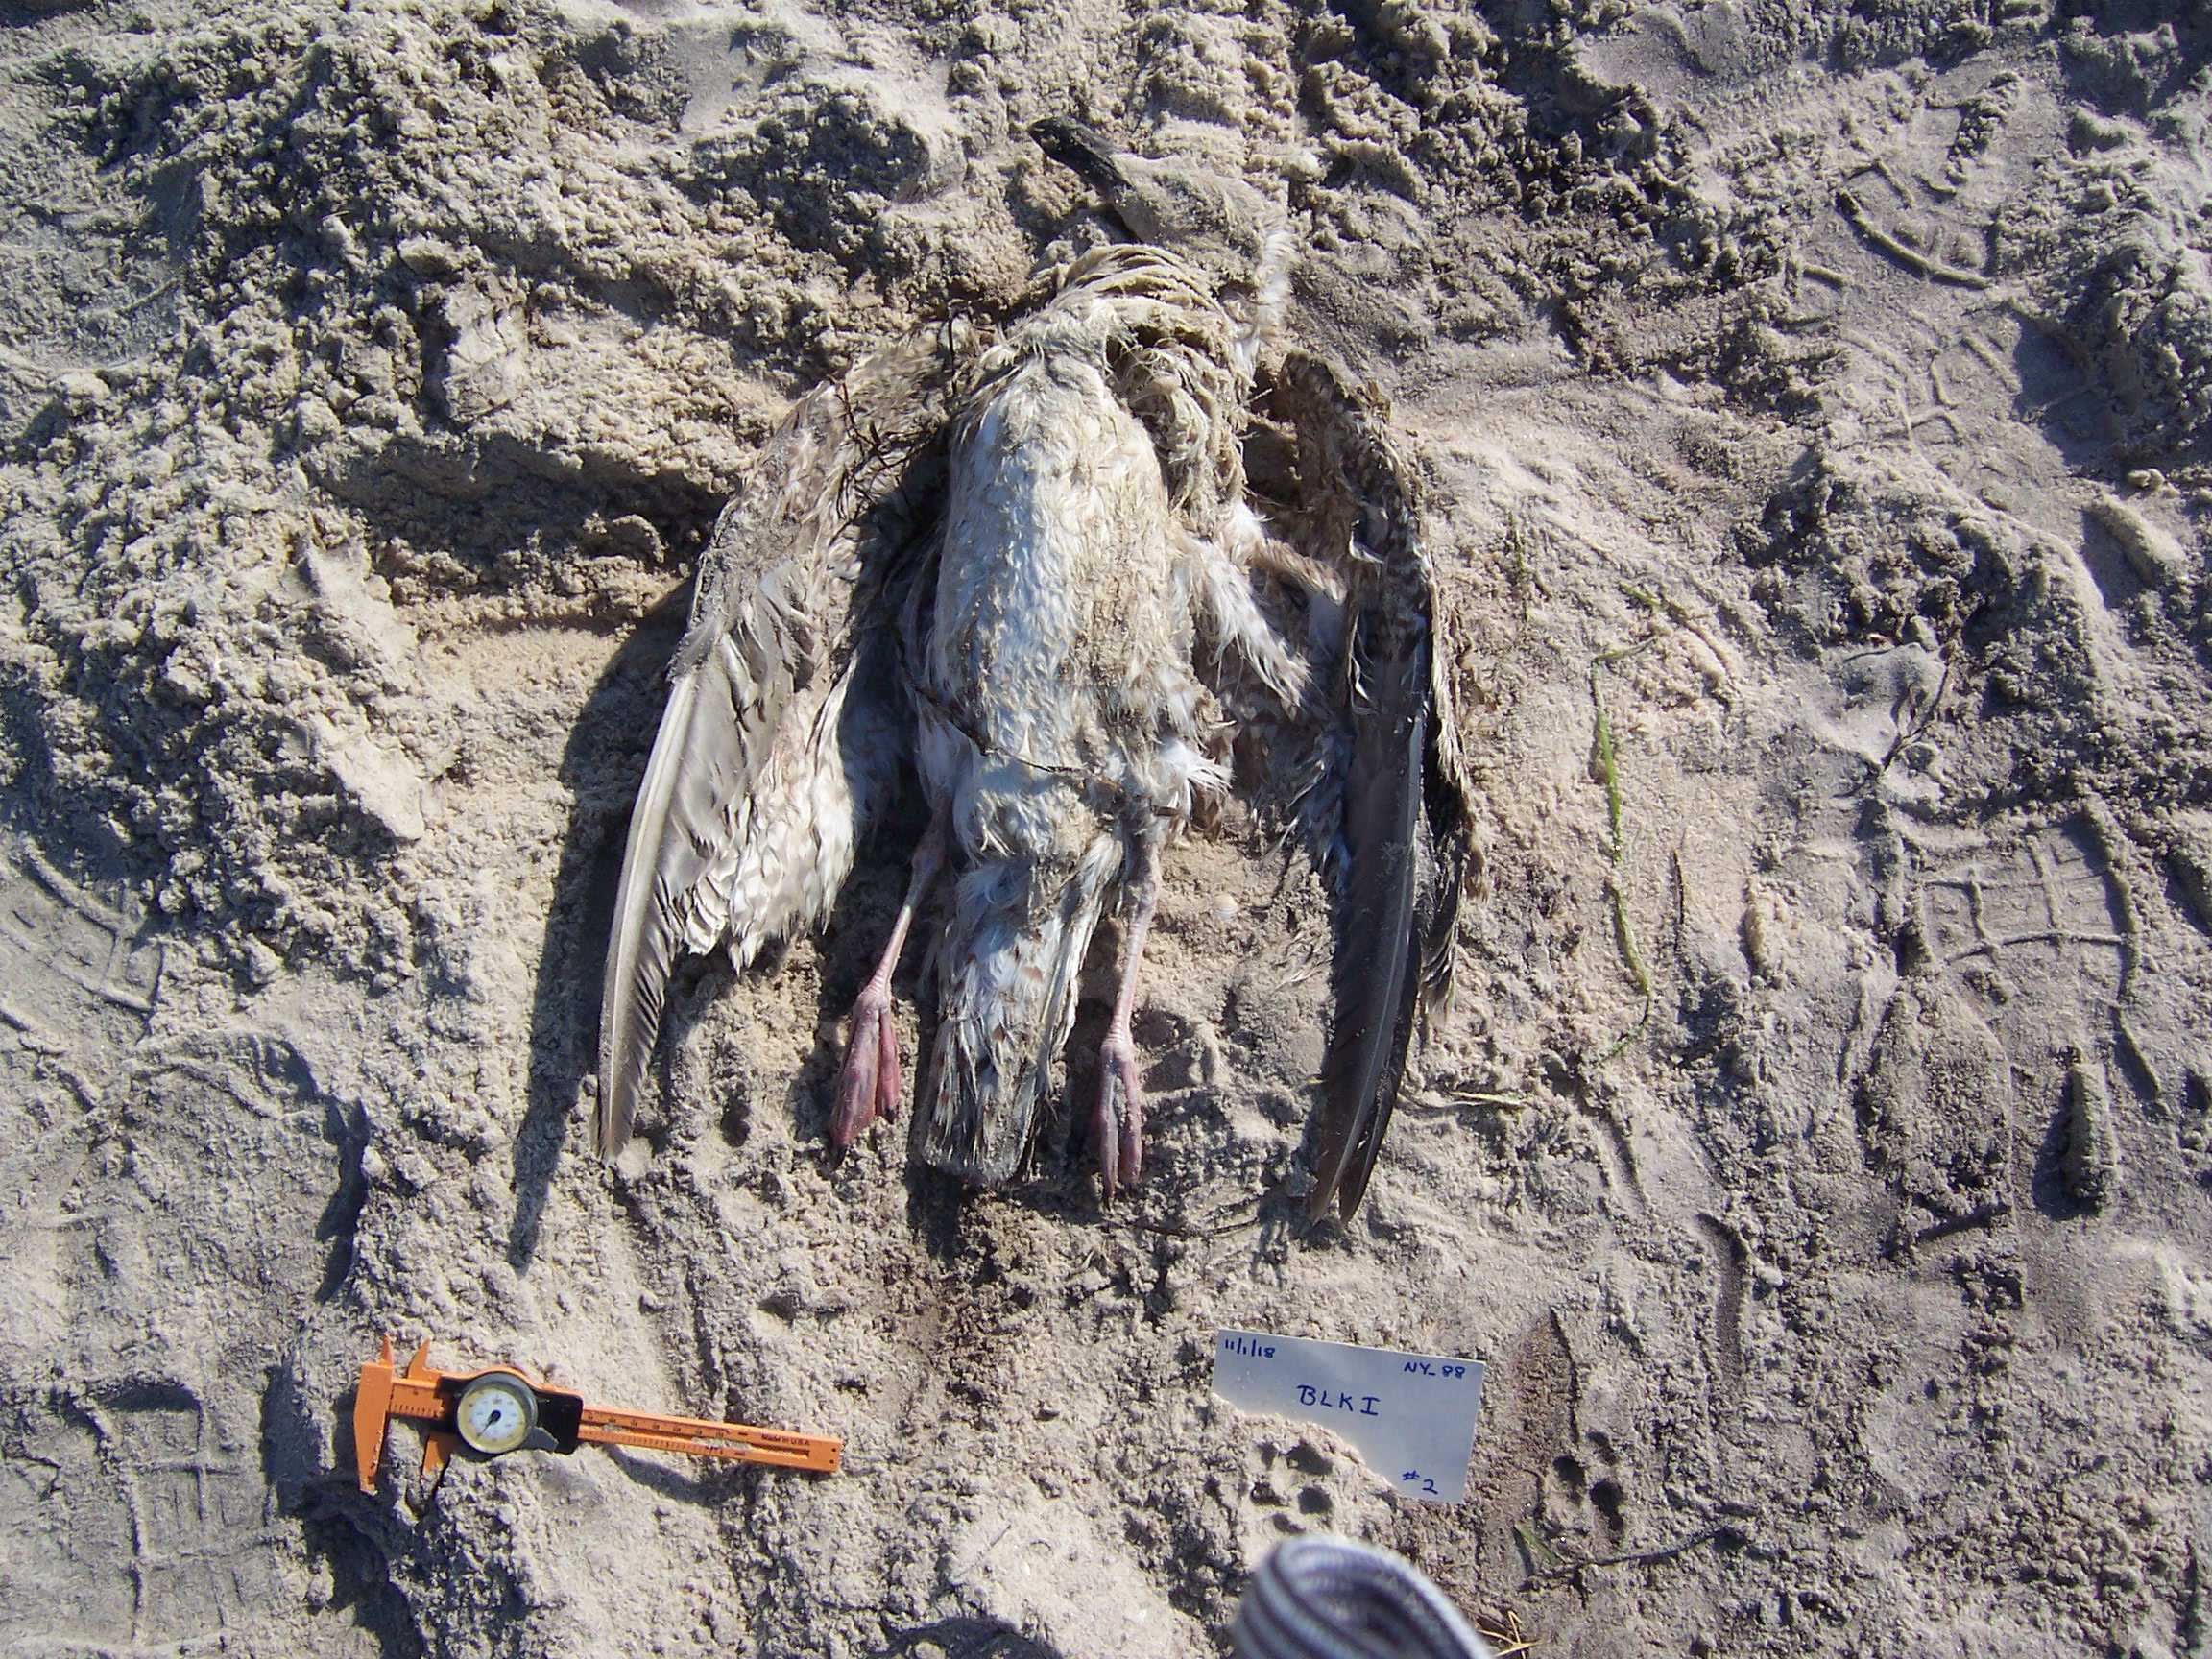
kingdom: Animalia
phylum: Chordata
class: Aves
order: Charadriiformes
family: Laridae
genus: Larus
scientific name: Larus marinus
